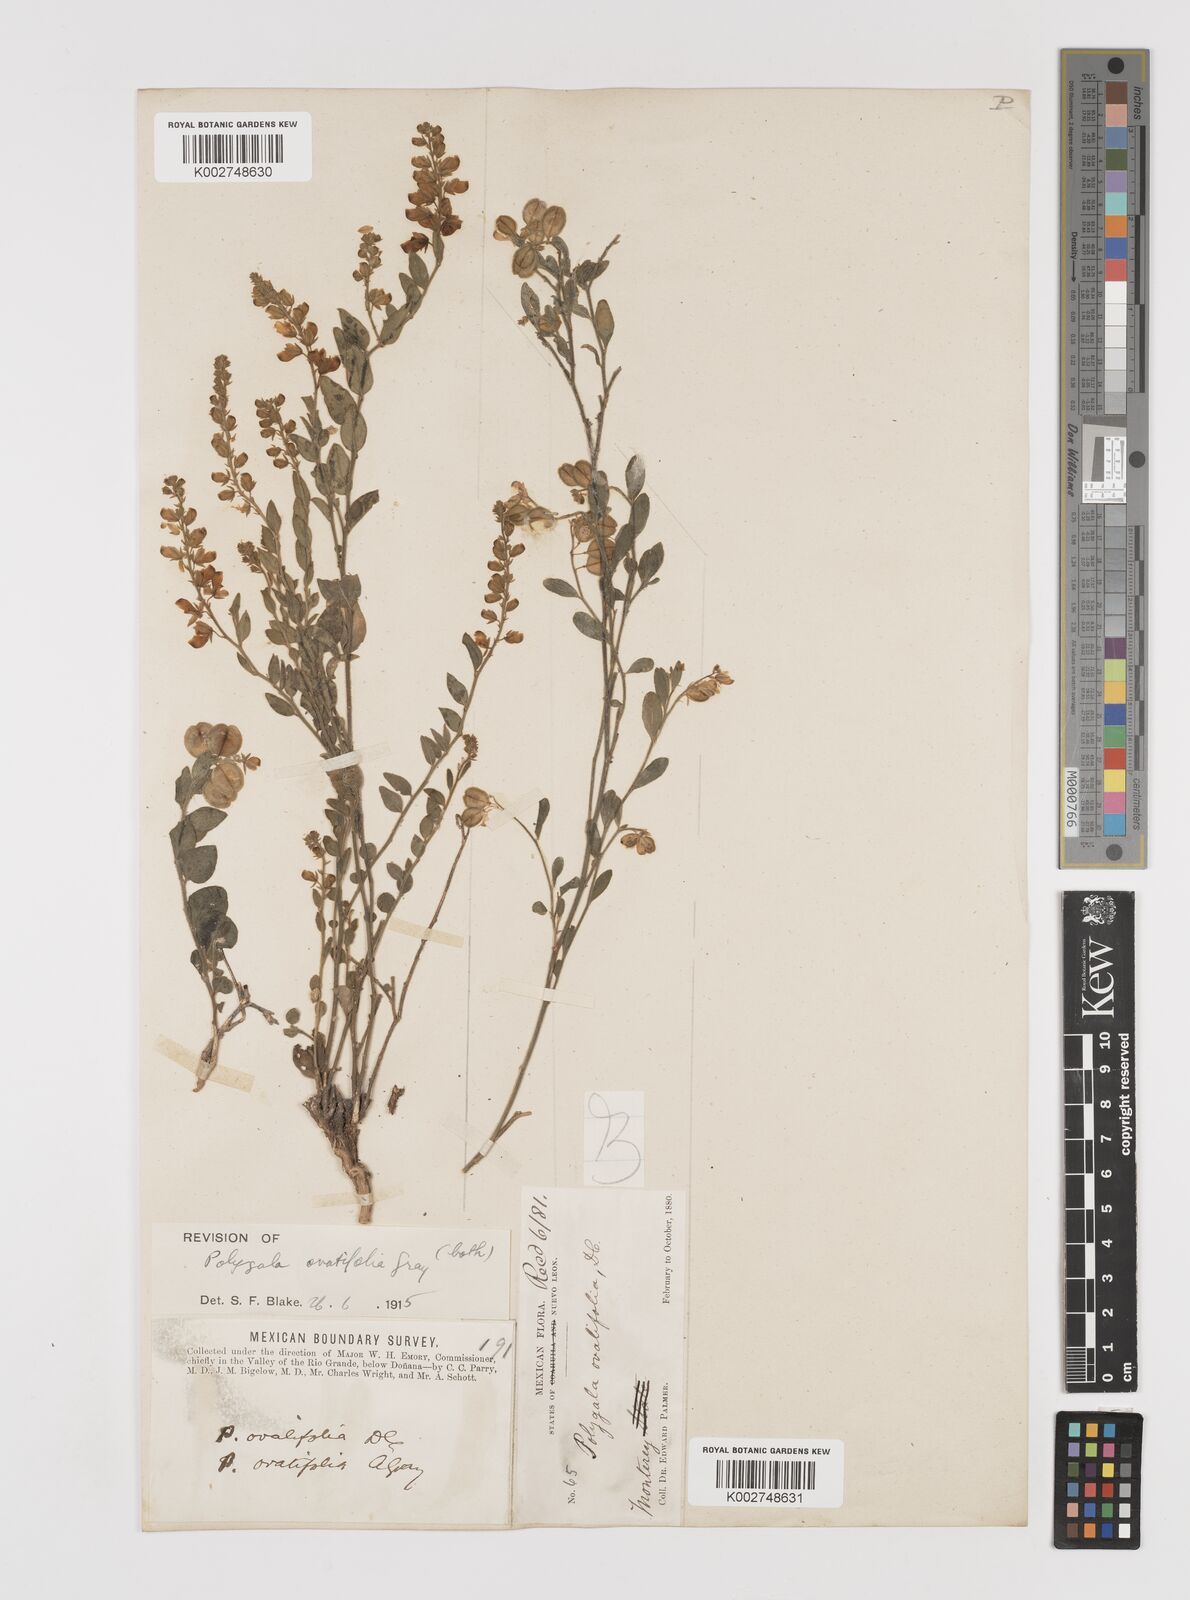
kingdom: Plantae
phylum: Tracheophyta
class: Magnoliopsida
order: Fabales
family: Polygalaceae
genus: Hebecarpa
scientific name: Hebecarpa
